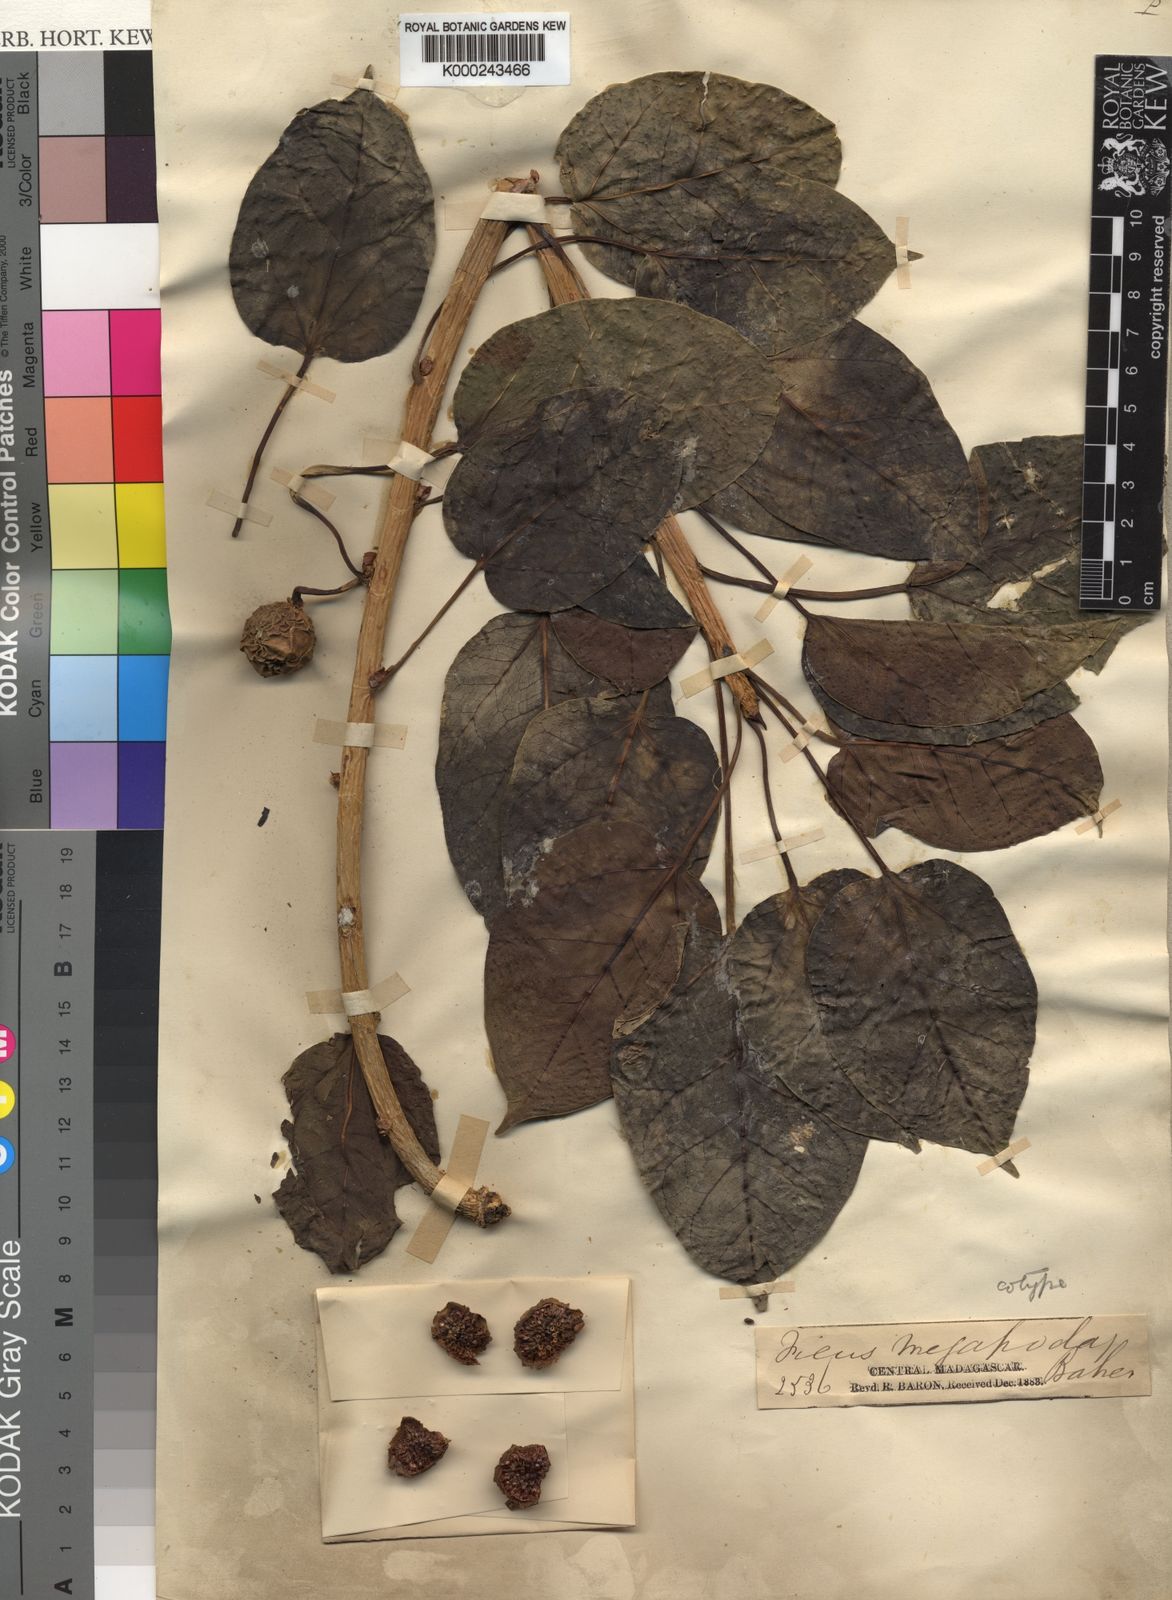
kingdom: Plantae
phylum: Tracheophyta
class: Magnoliopsida
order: Rosales
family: Moraceae
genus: Ficus
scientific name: Ficus polita
